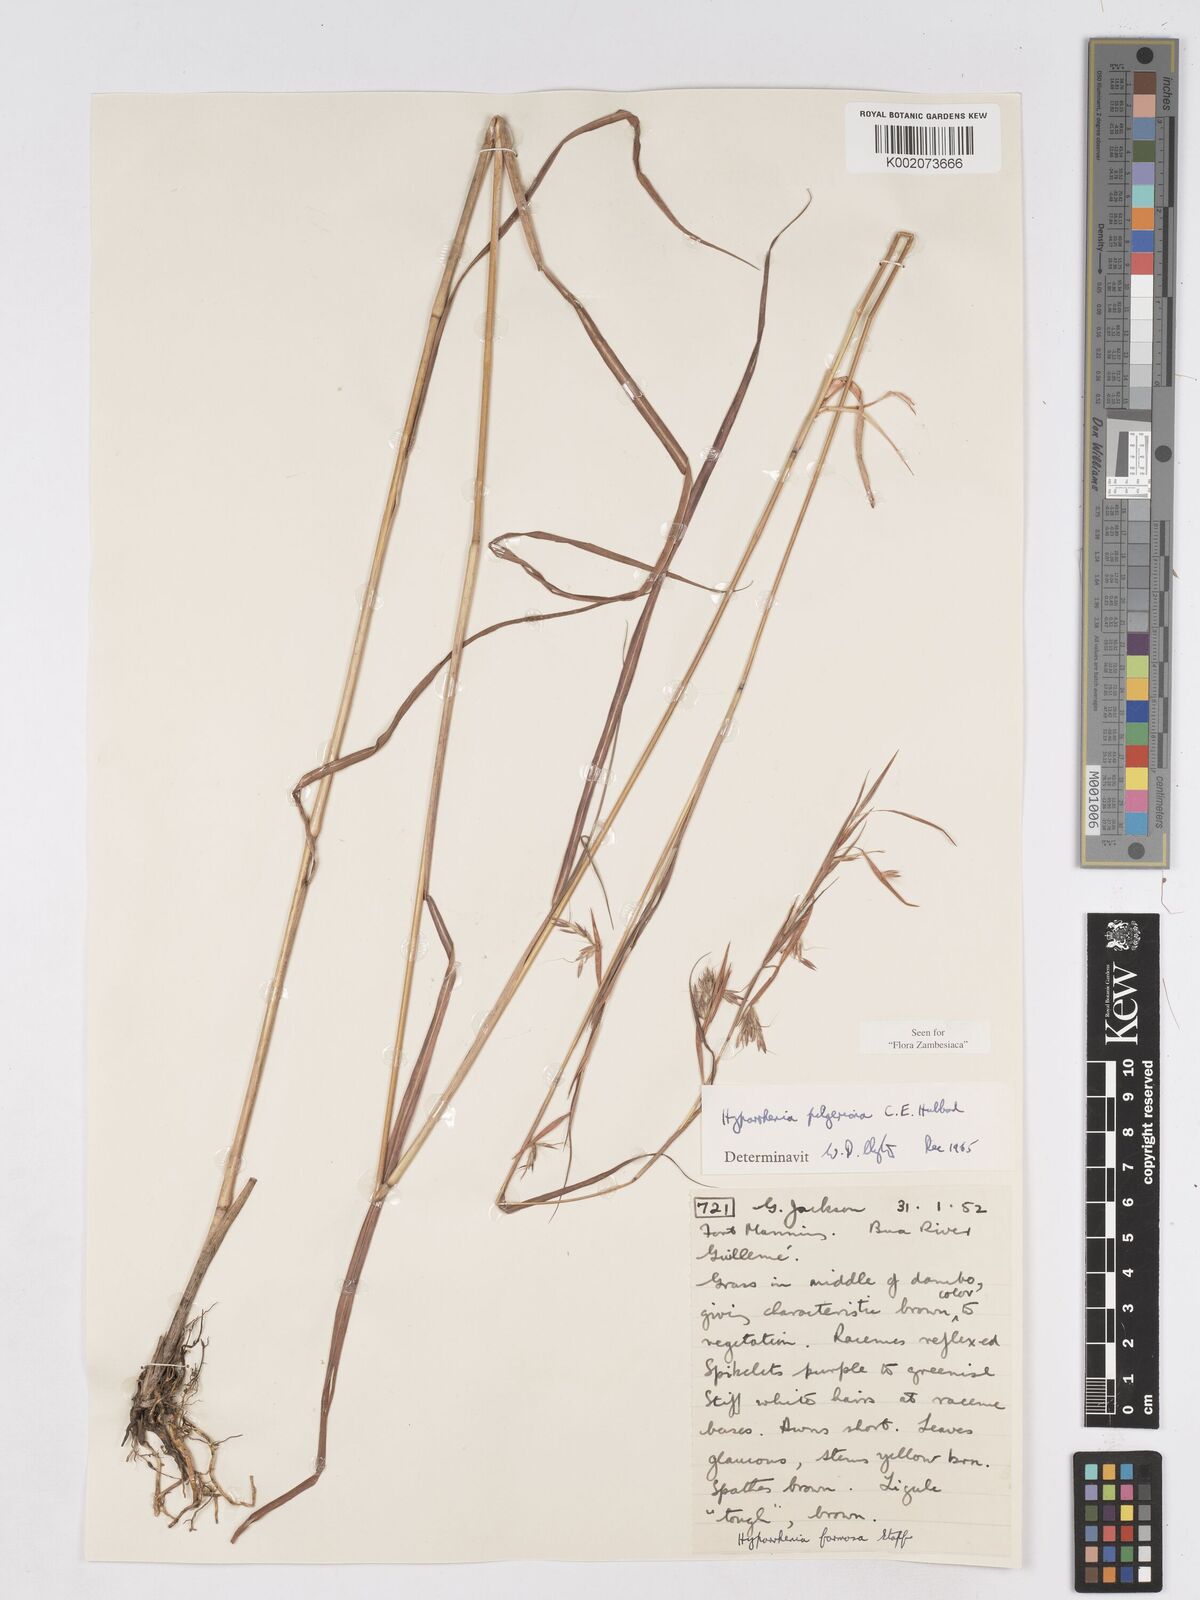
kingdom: Plantae
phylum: Tracheophyta
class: Liliopsida
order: Poales
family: Poaceae
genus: Hyparrhenia
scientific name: Hyparrhenia pilgeriana
